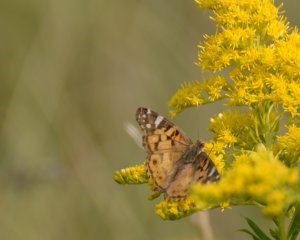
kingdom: Animalia
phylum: Arthropoda
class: Insecta
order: Lepidoptera
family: Nymphalidae
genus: Vanessa
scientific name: Vanessa virginiensis
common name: American Lady
